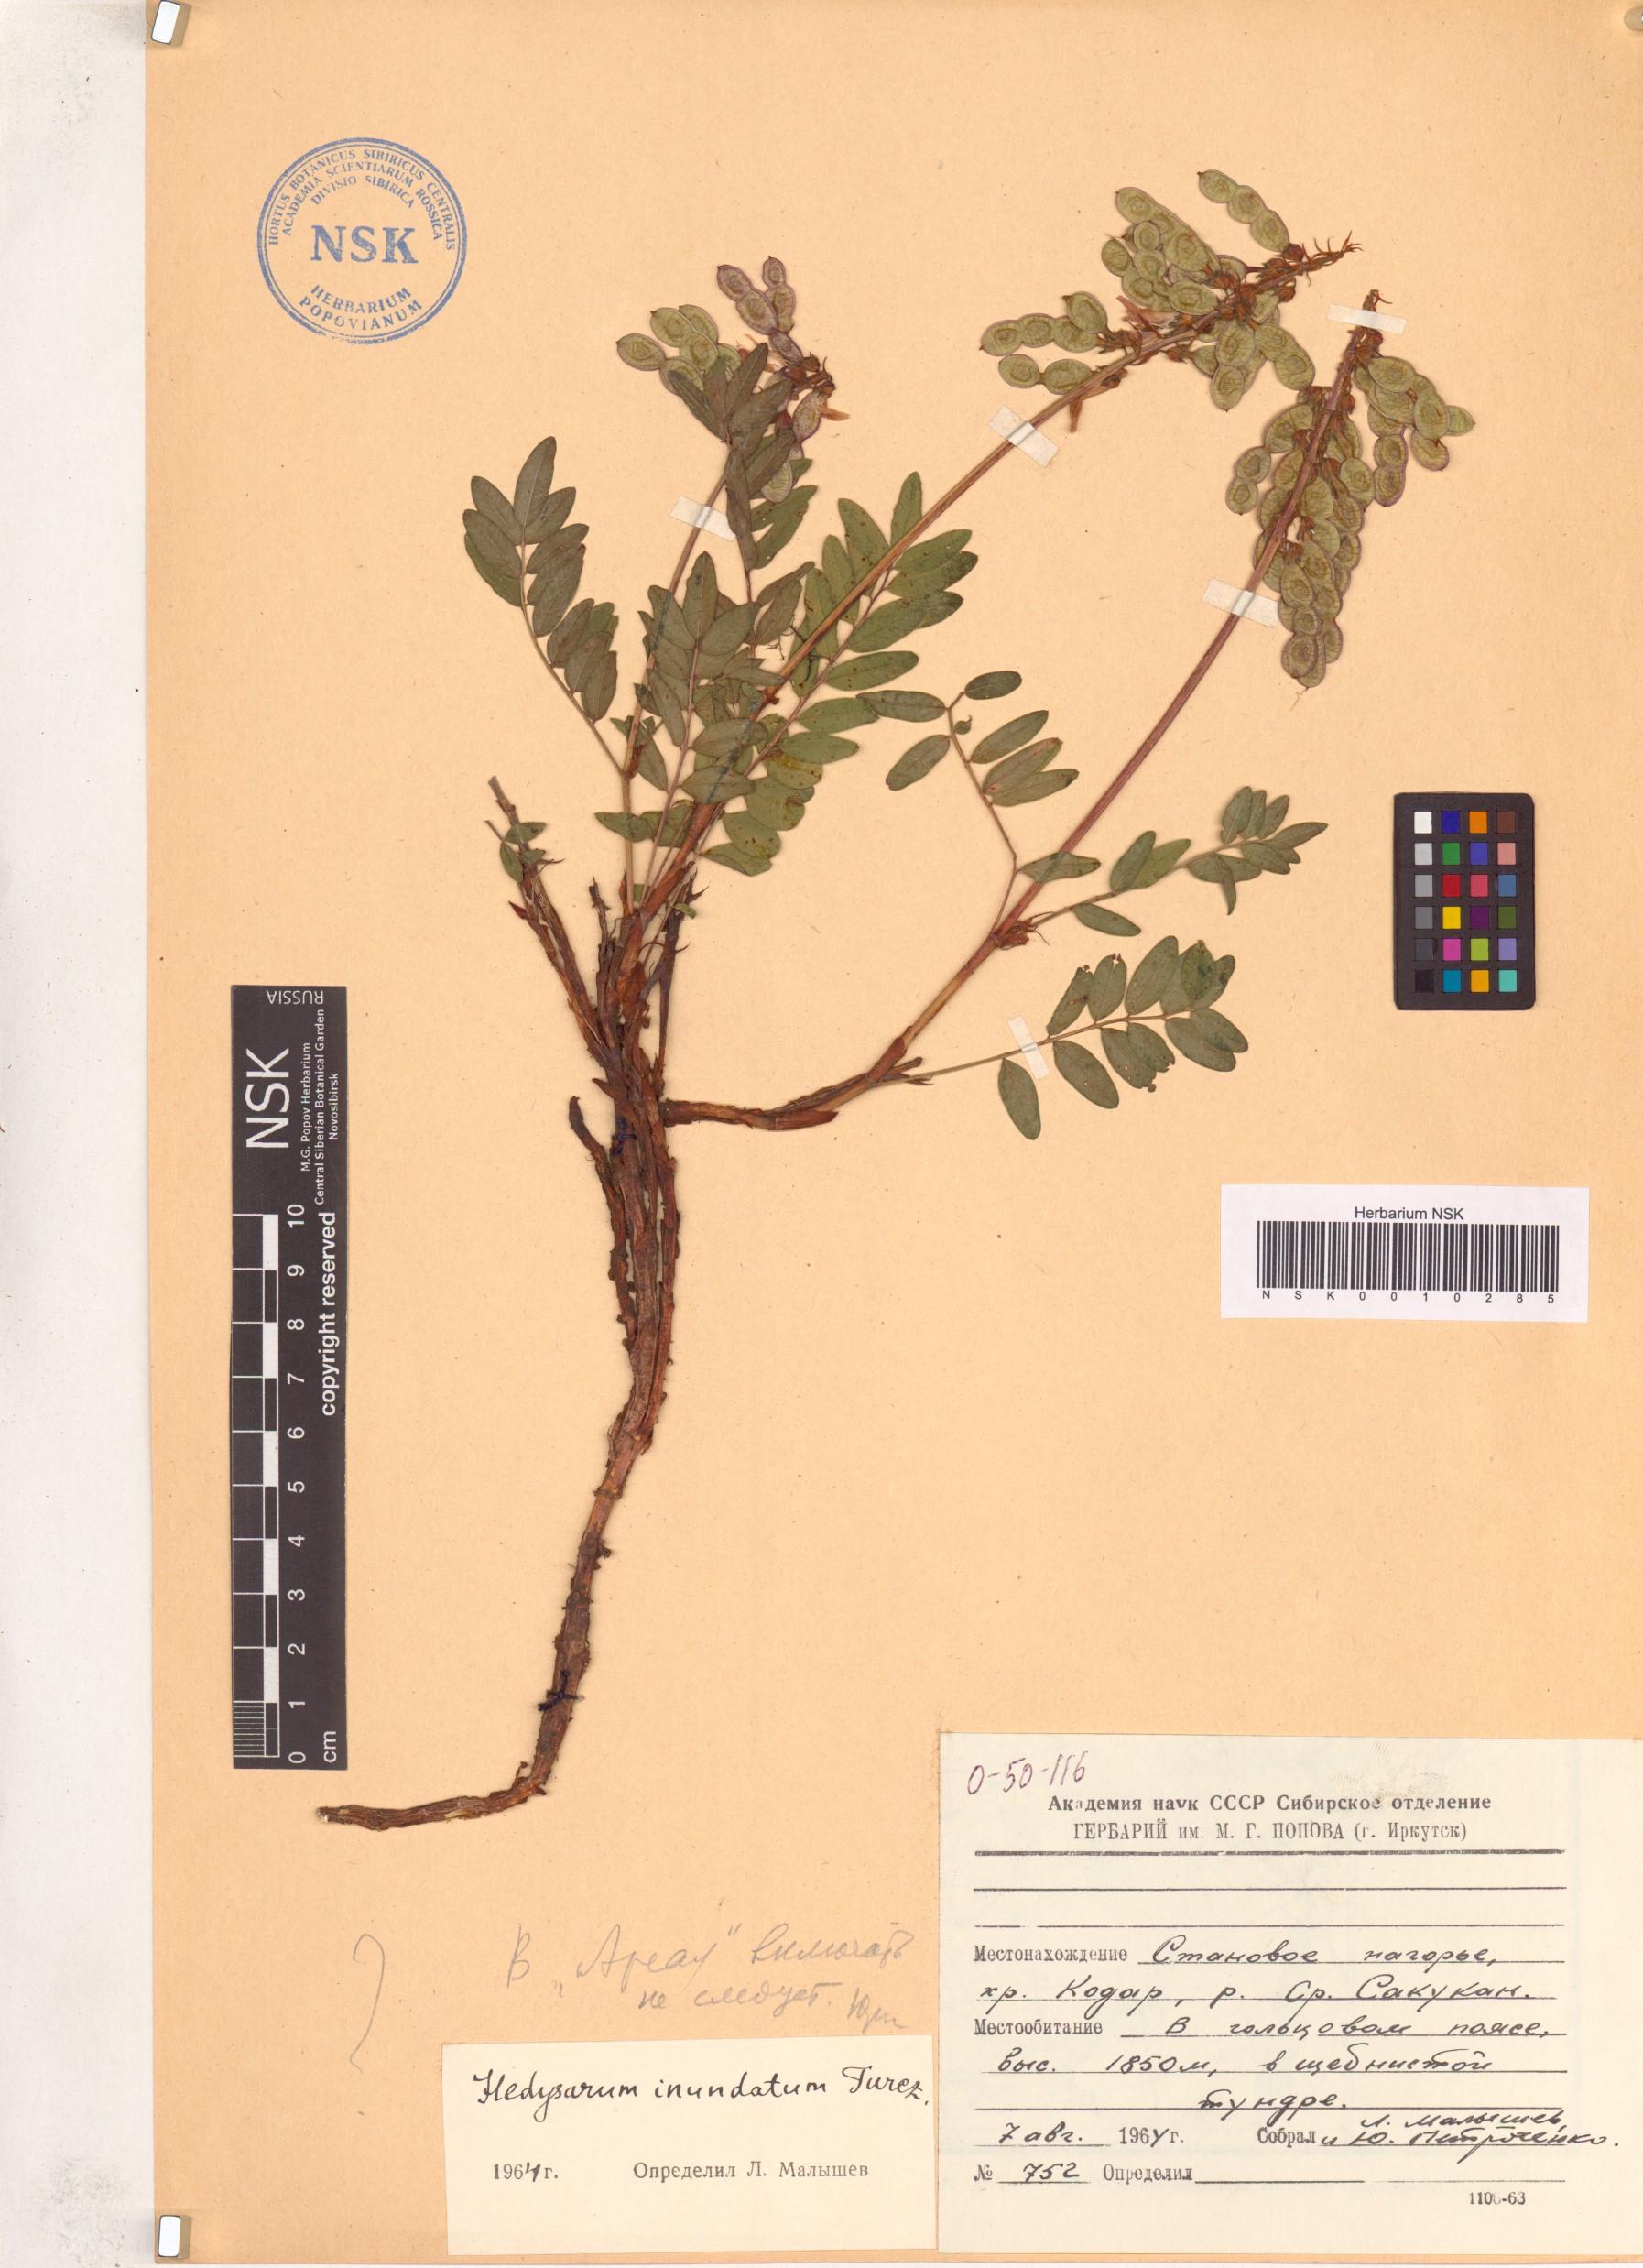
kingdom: Plantae
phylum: Tracheophyta
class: Magnoliopsida
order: Fabales
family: Fabaceae
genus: Hedysarum
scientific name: Hedysarum inundatum
